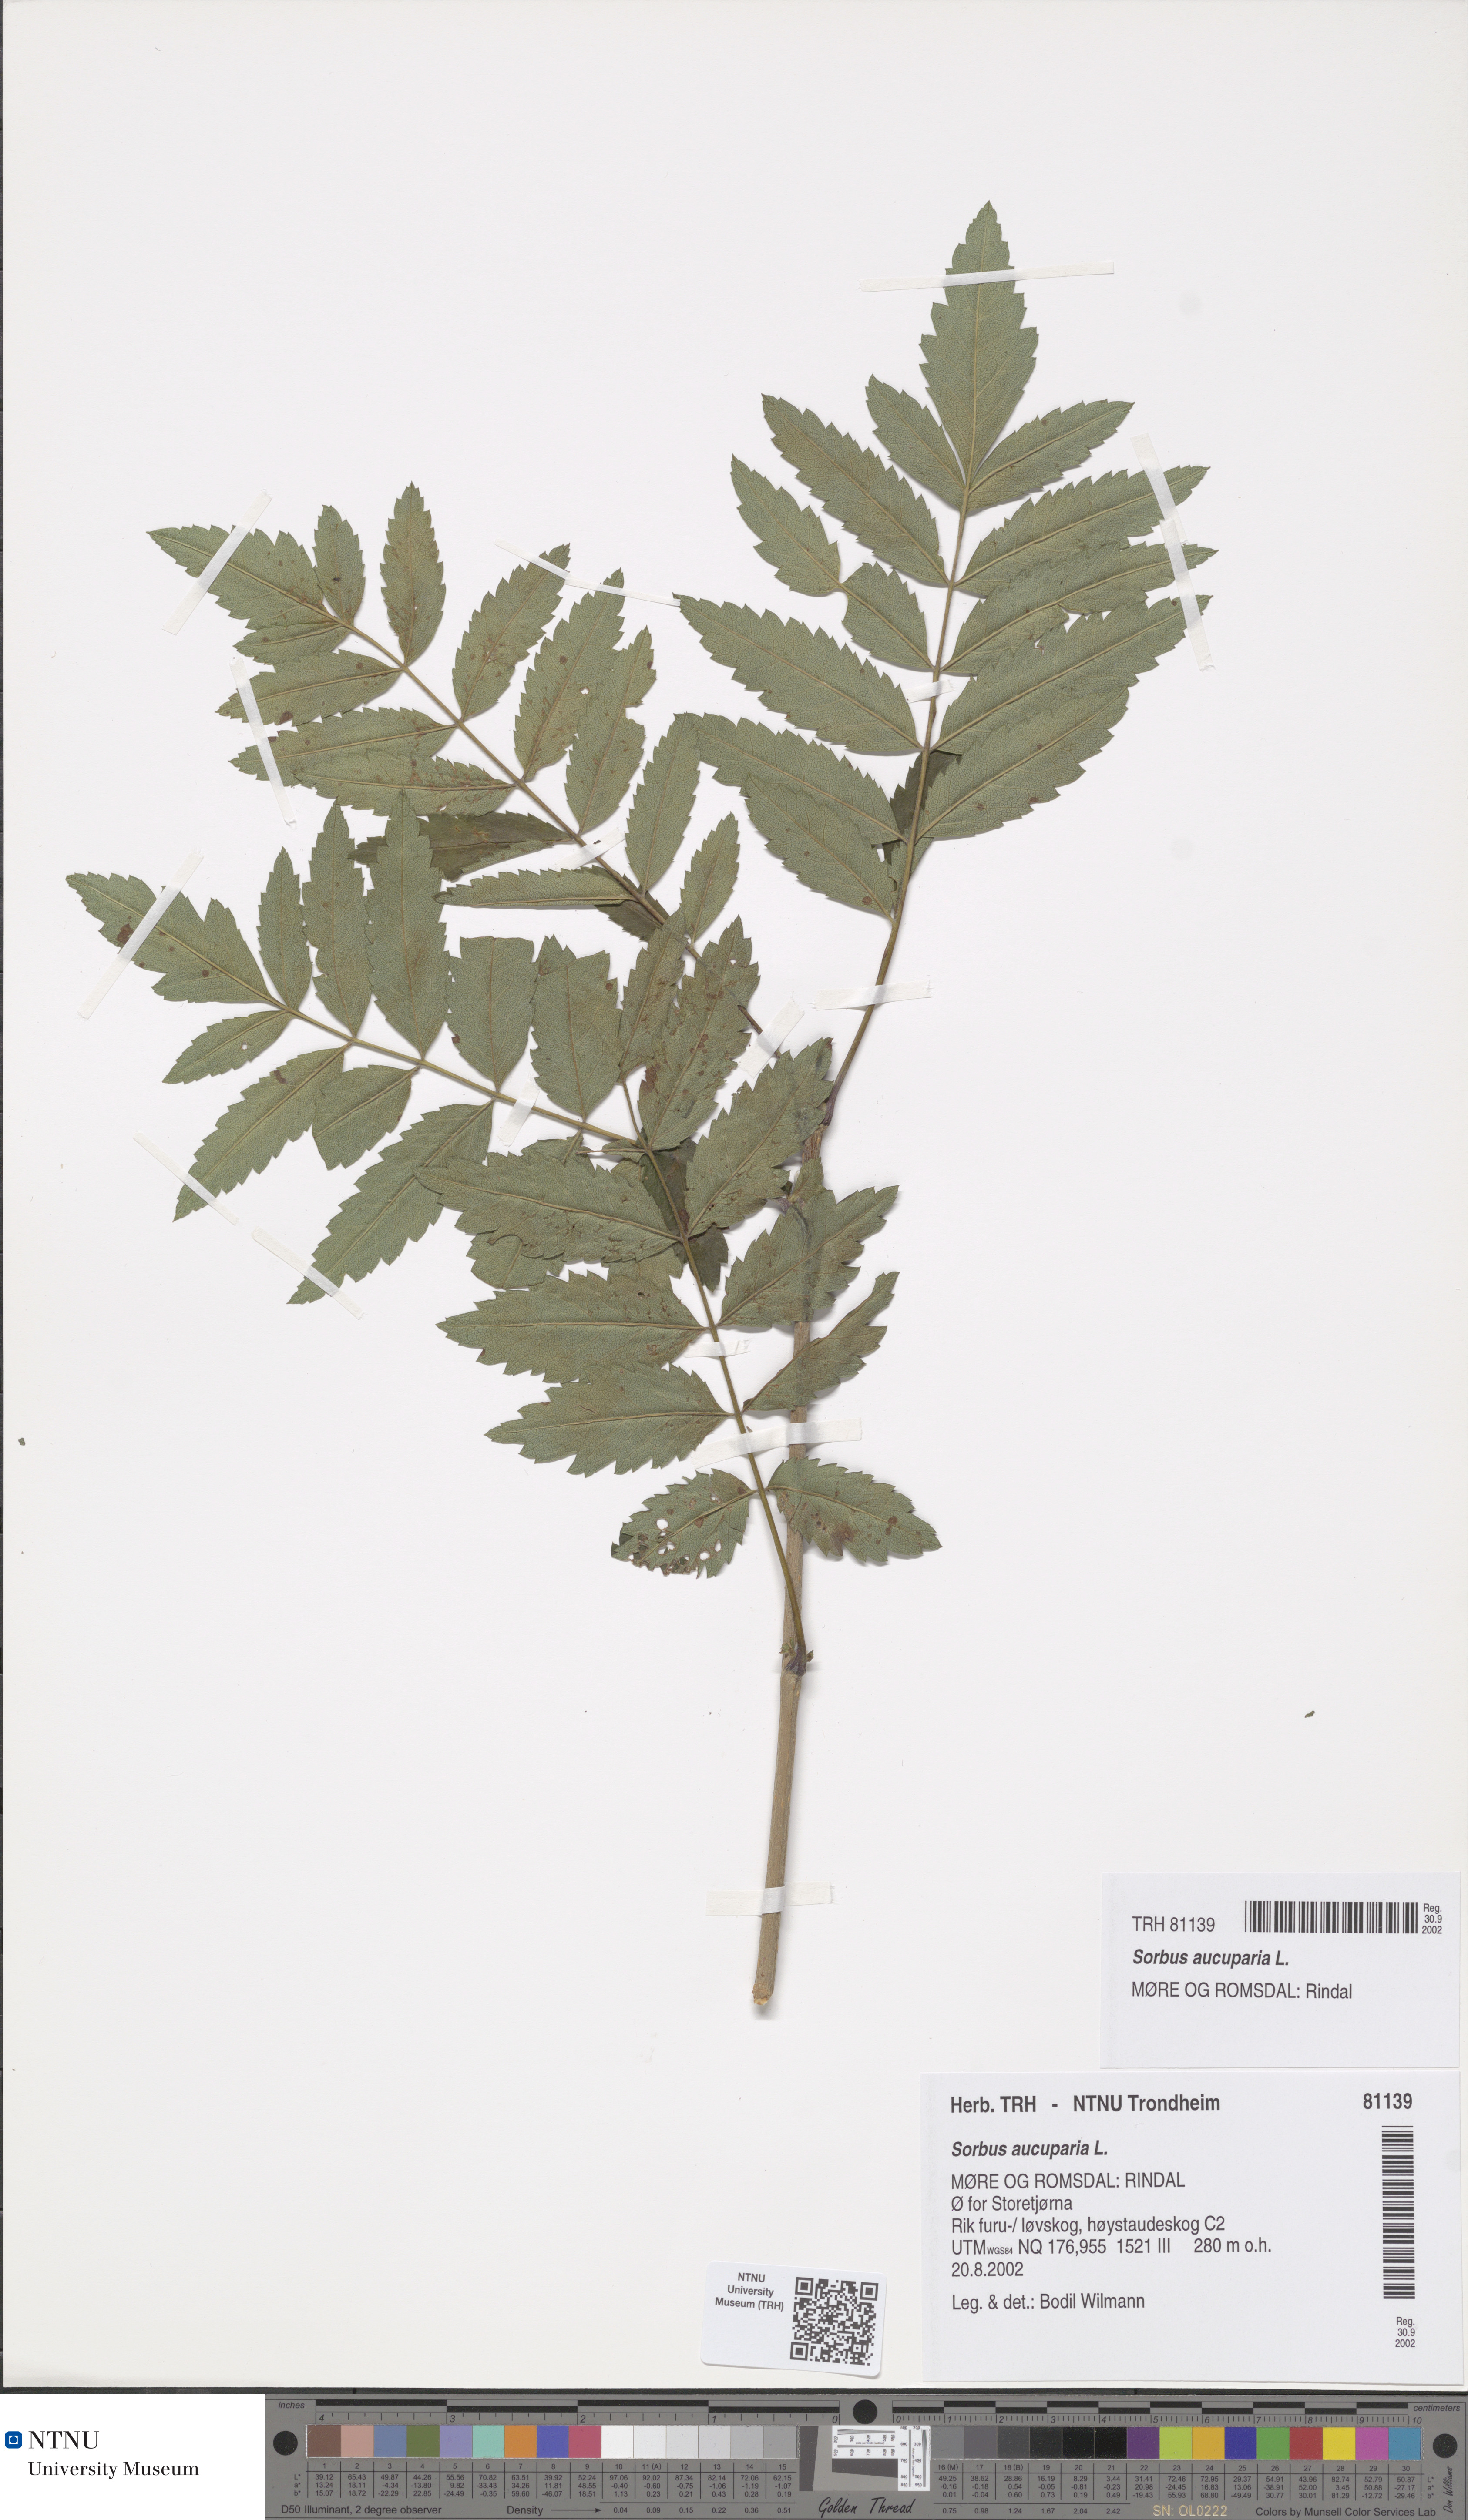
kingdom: Plantae
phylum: Tracheophyta
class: Magnoliopsida
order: Rosales
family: Rosaceae
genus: Sorbus
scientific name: Sorbus aucuparia
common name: Rowan
